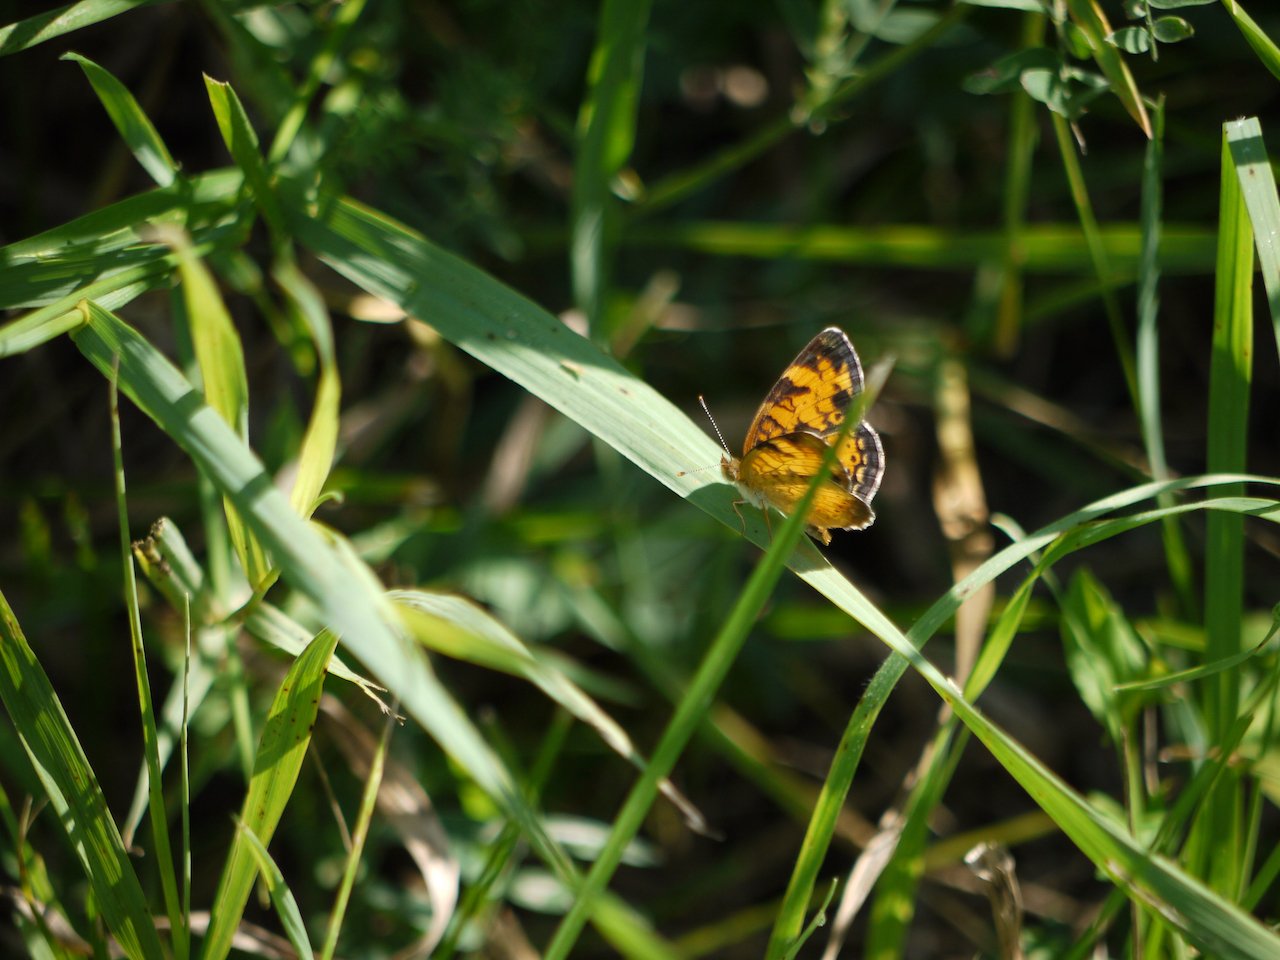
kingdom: Animalia
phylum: Arthropoda
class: Insecta
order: Lepidoptera
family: Nymphalidae
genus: Phyciodes
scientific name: Phyciodes
